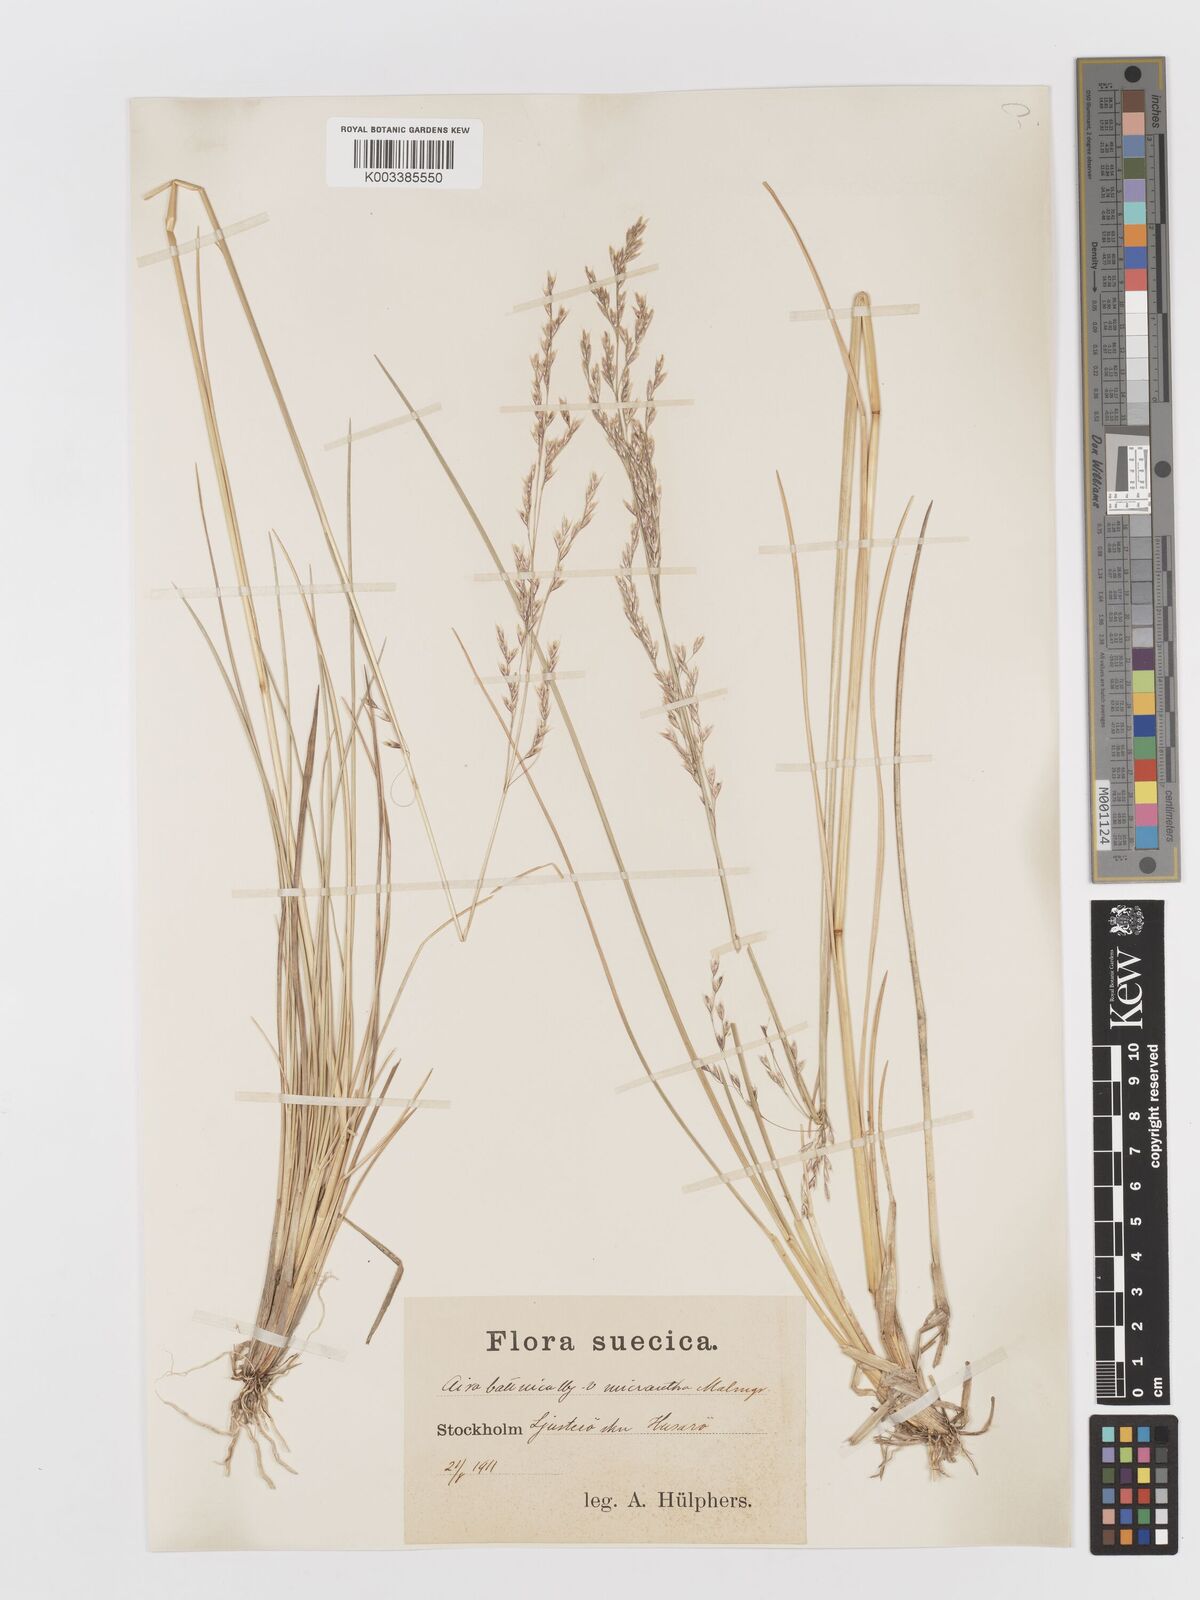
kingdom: Plantae
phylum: Tracheophyta
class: Liliopsida
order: Poales
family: Poaceae
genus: Deschampsia
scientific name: Deschampsia cespitosa
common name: Tufted hair-grass
